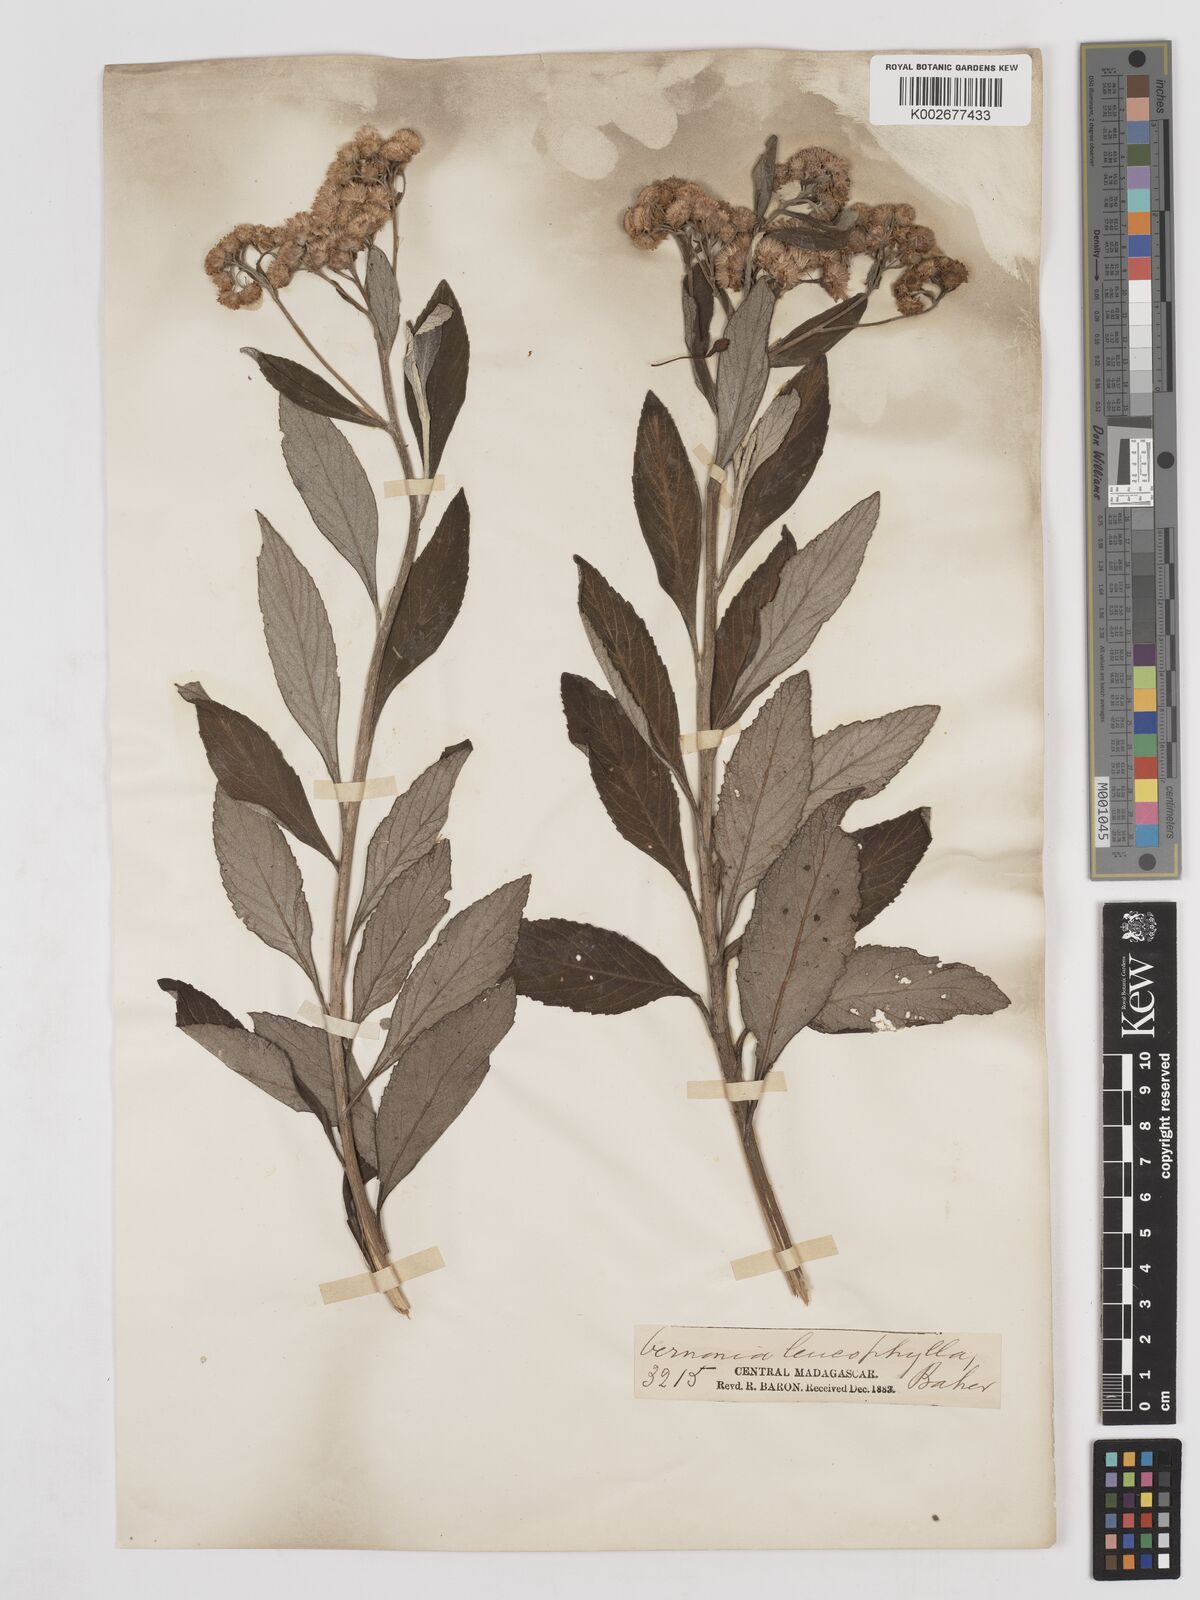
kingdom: Plantae
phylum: Tracheophyta
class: Magnoliopsida
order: Asterales
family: Asteraceae
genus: Psiadia
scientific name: Psiadia leucophylla
